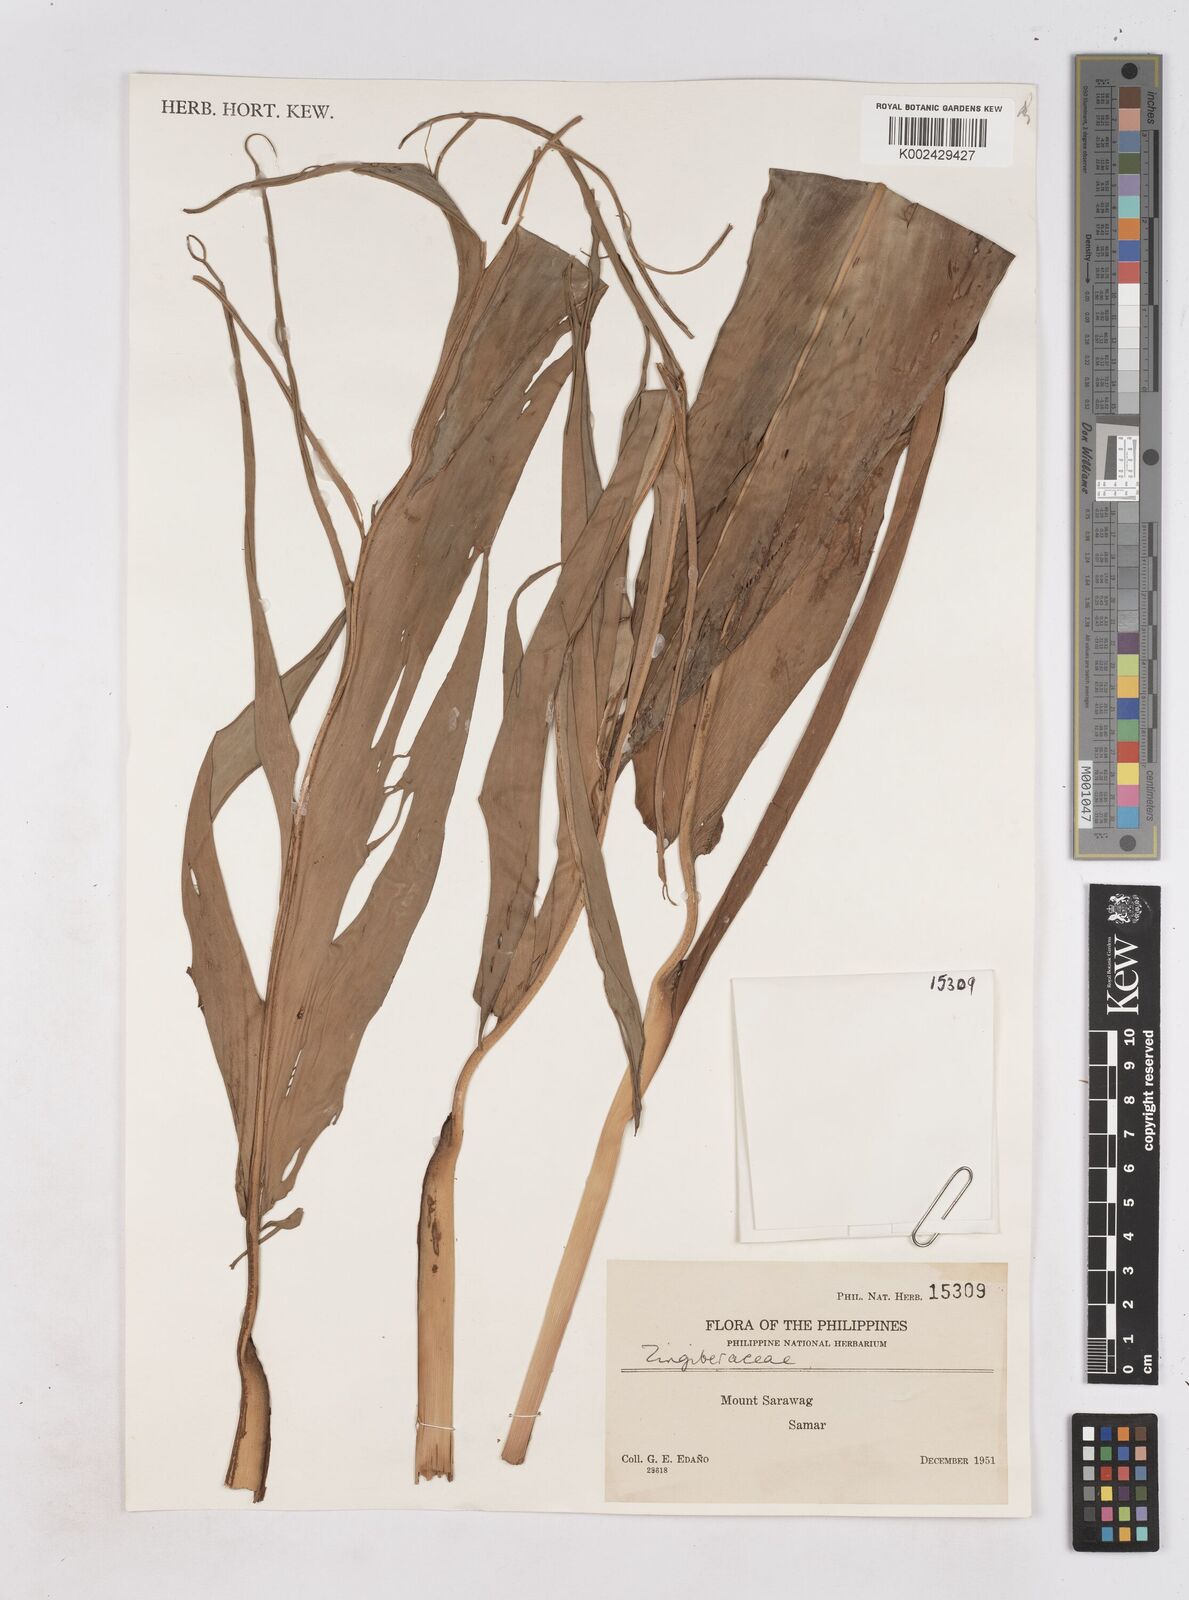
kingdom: Plantae
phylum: Tracheophyta
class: Liliopsida
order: Zingiberales
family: Zingiberaceae
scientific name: Zingiberaceae
